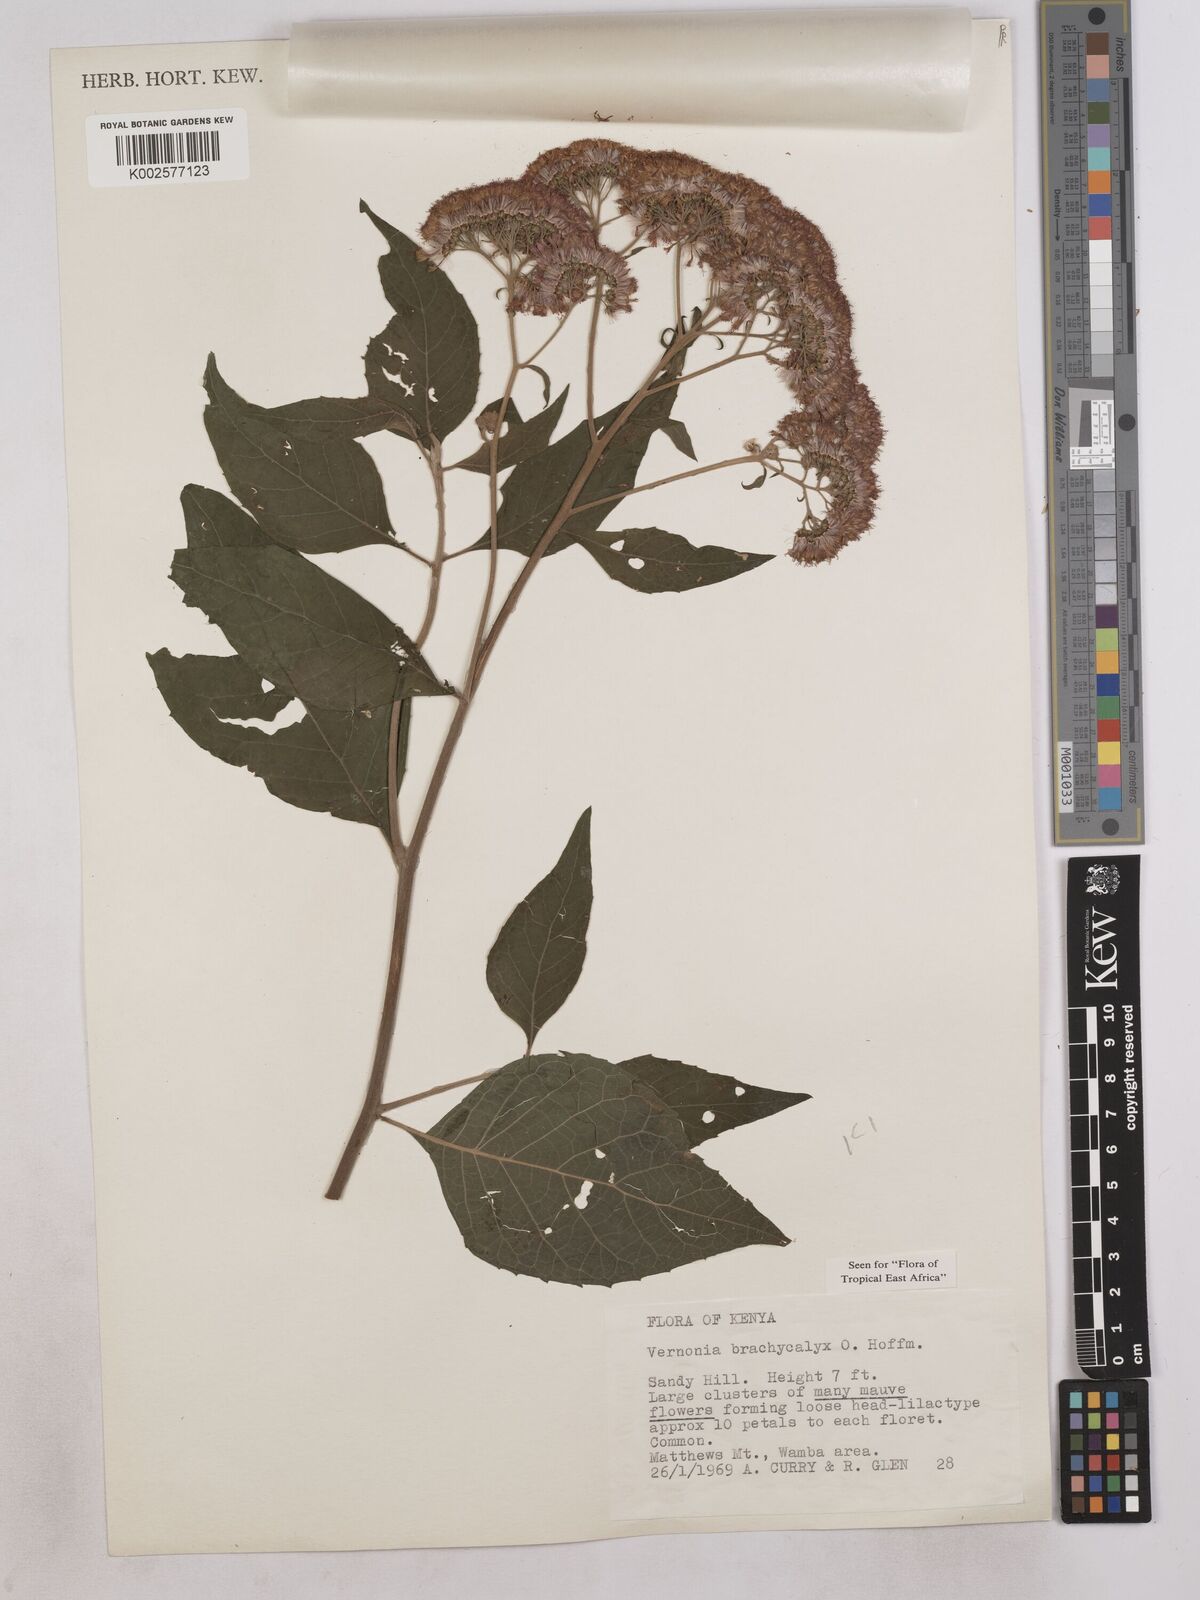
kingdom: Plantae
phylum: Tracheophyta
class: Magnoliopsida
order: Asterales
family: Asteraceae
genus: Hoffmannanthus
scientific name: Hoffmannanthus abbotianus
